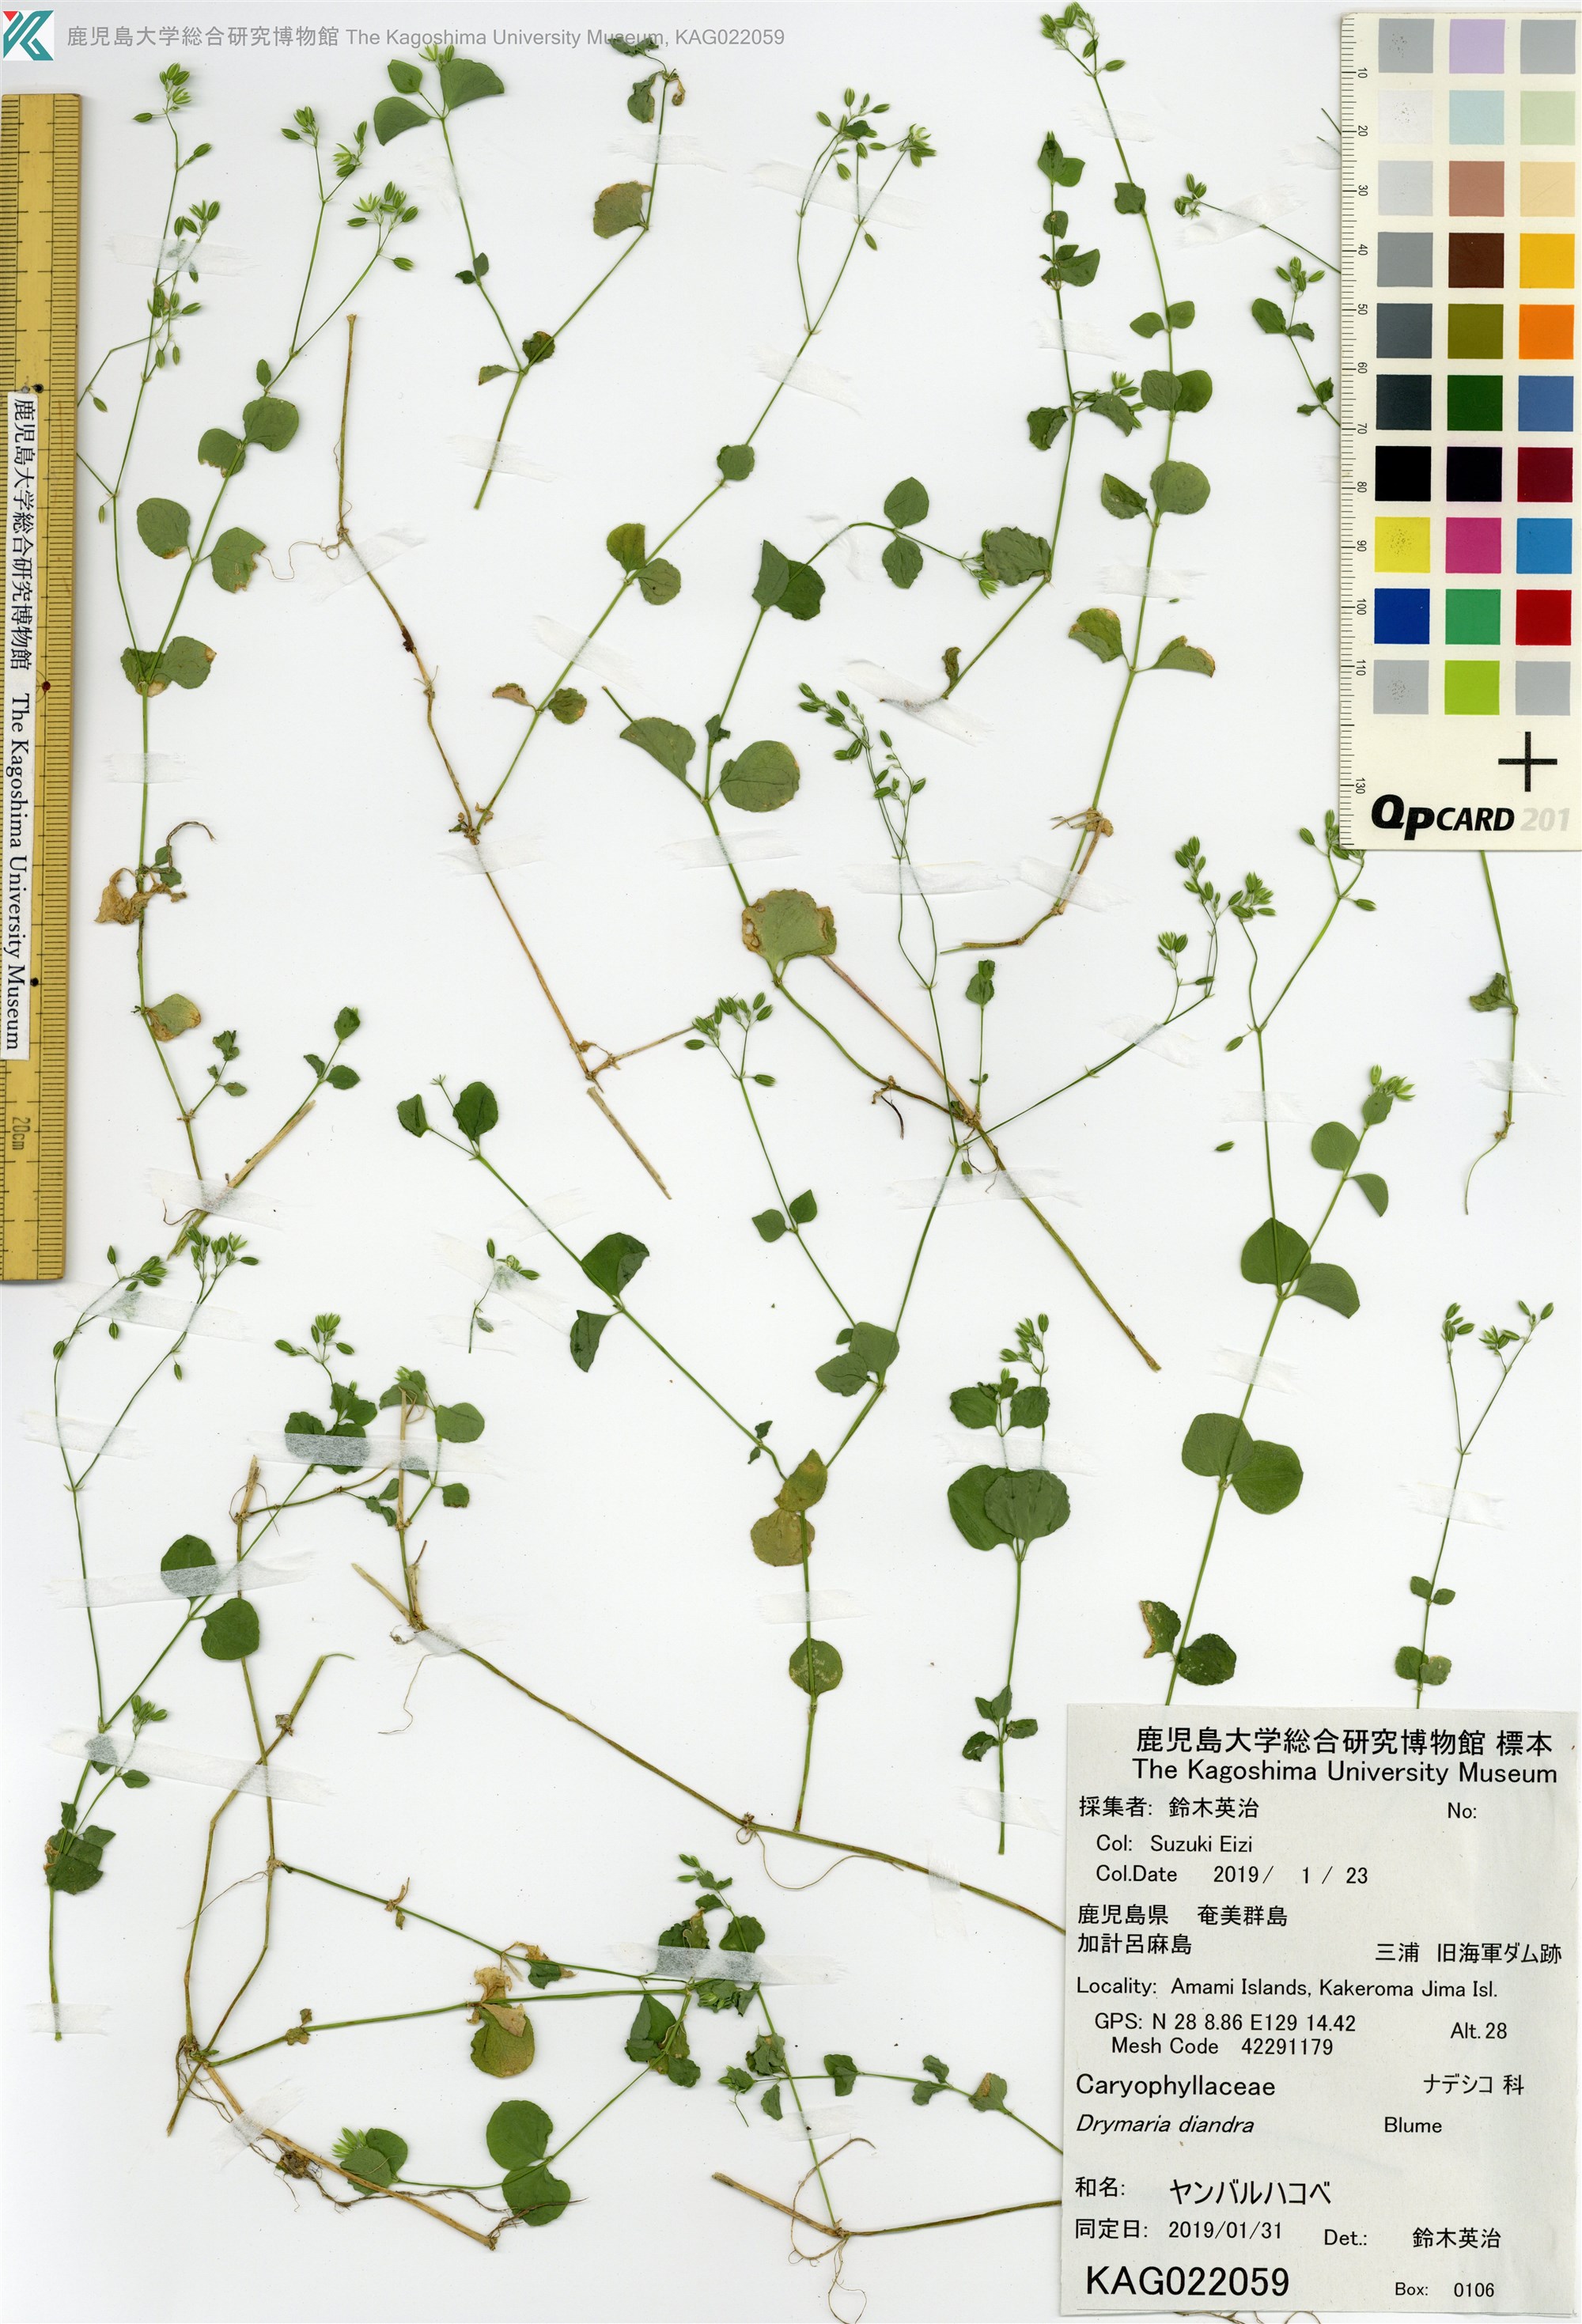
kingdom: Plantae
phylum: Tracheophyta
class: Magnoliopsida
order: Caryophyllales
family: Caryophyllaceae
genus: Drymaria
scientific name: Drymaria diandra
